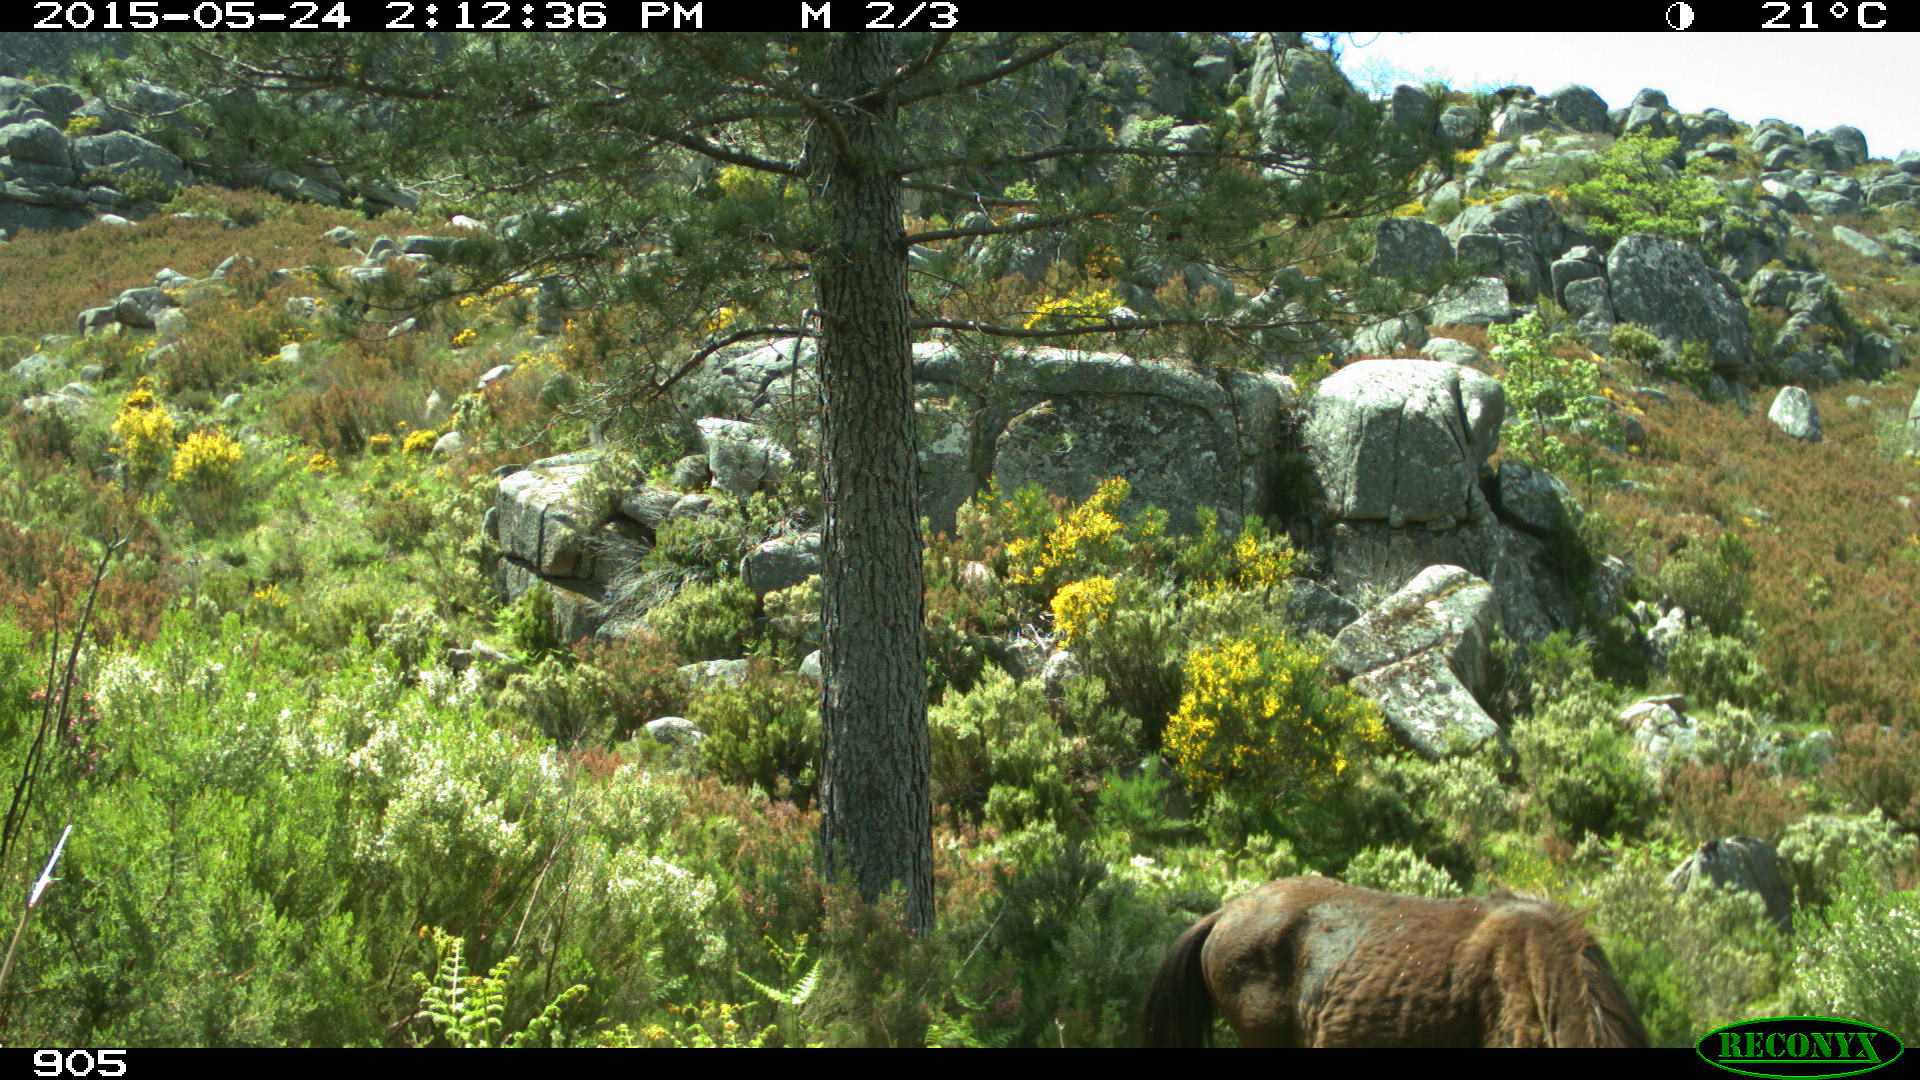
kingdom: Animalia
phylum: Chordata
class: Mammalia
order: Perissodactyla
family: Equidae
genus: Equus
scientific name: Equus caballus
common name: Horse
